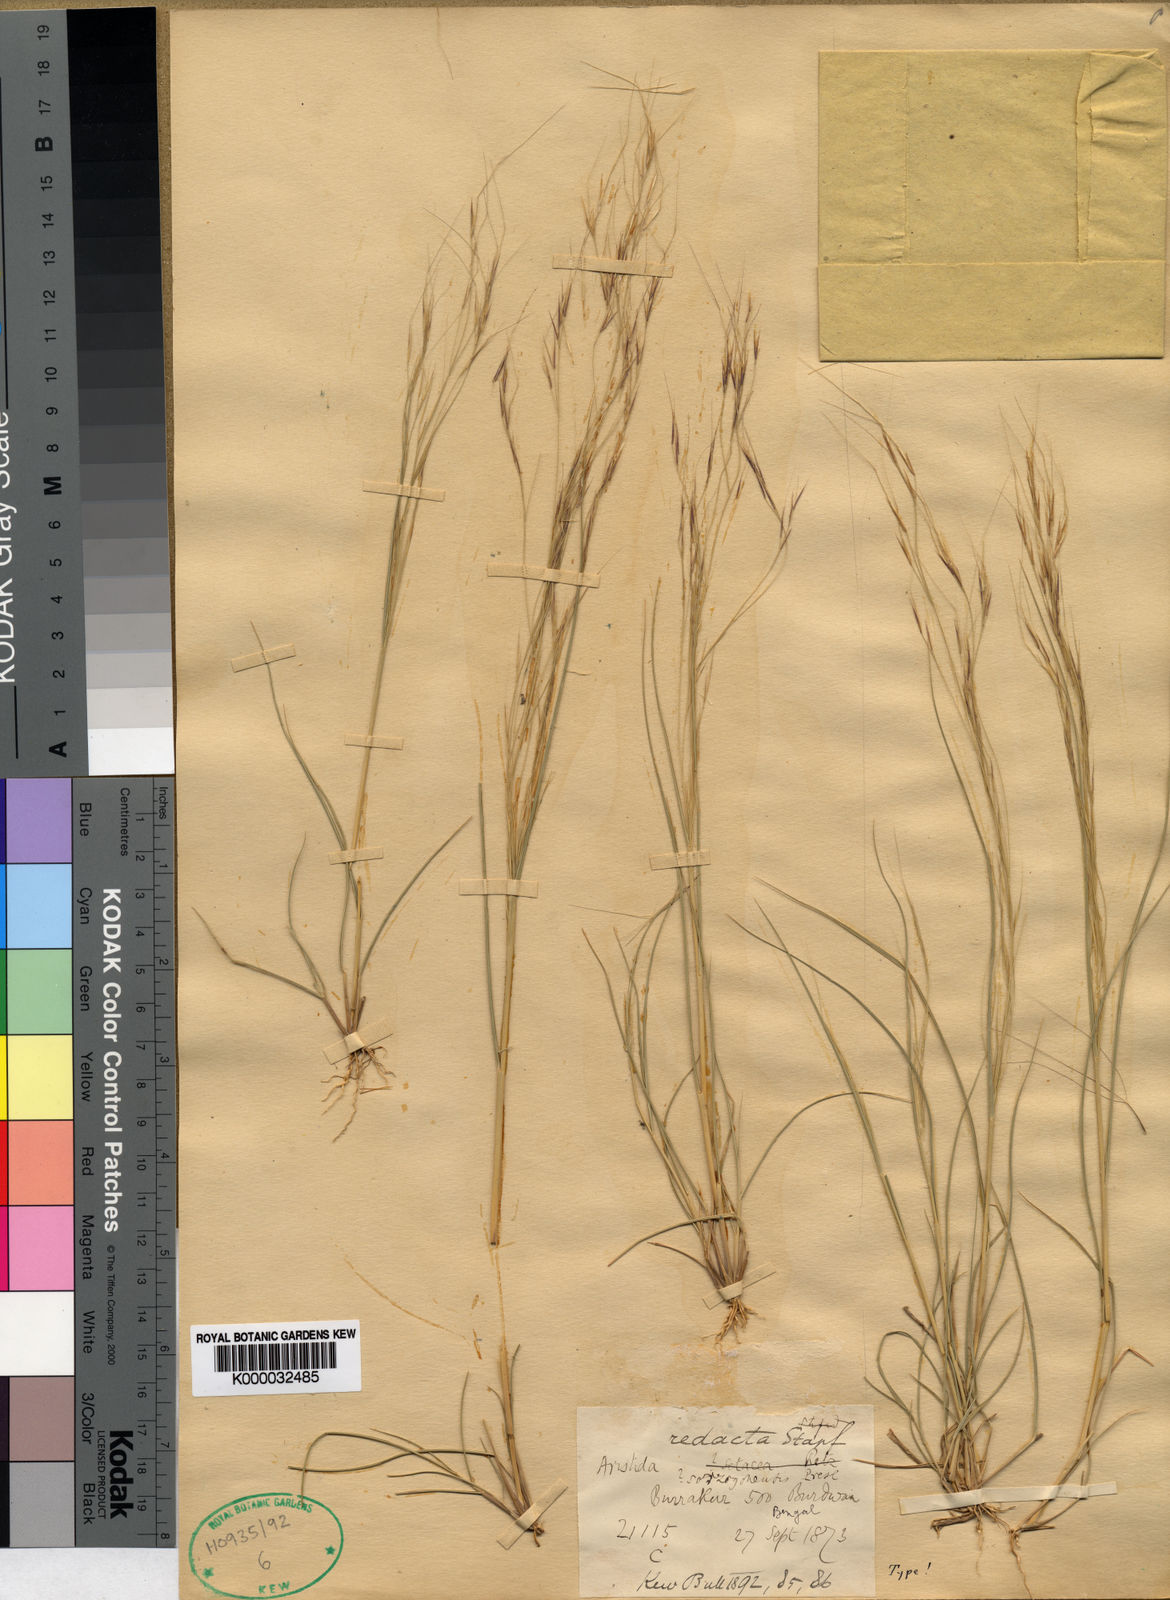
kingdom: Plantae
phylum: Tracheophyta
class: Liliopsida
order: Poales
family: Poaceae
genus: Aristida
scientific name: Aristida redacta
